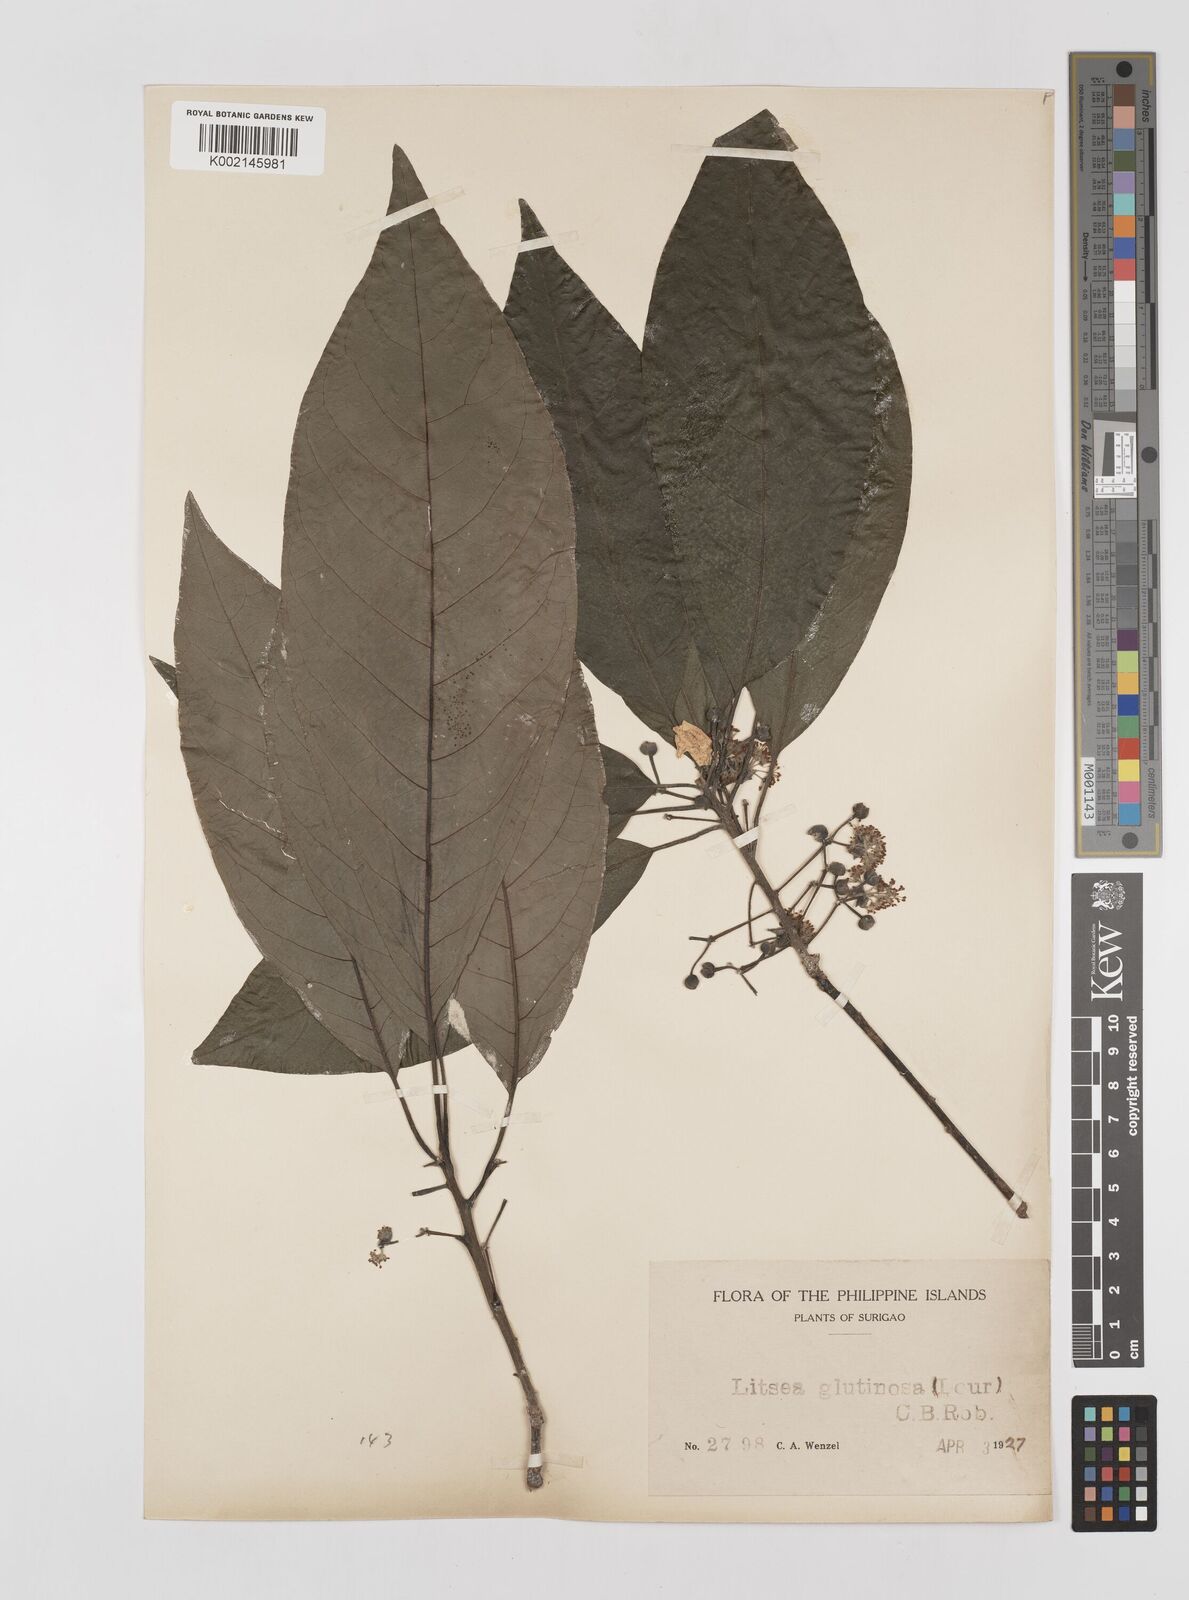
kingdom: Plantae
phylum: Tracheophyta
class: Magnoliopsida
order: Laurales
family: Lauraceae
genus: Litsea
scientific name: Litsea glutinosa
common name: Indian-laurel
